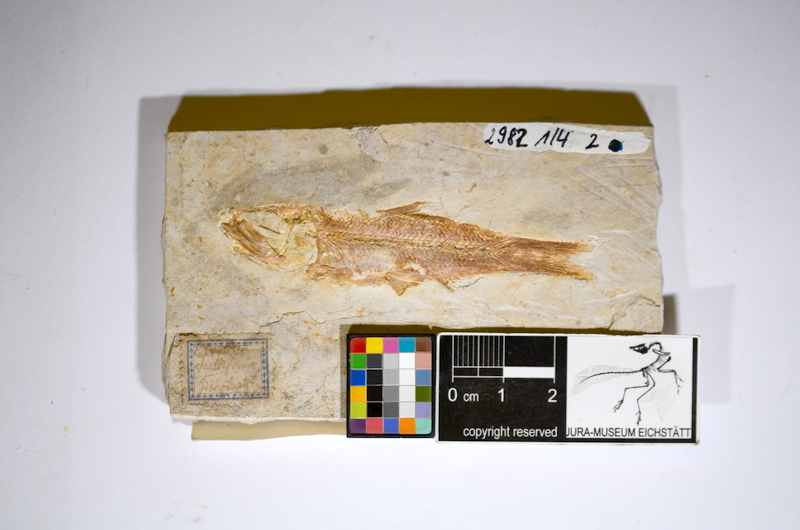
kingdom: Animalia
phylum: Chordata
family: Ascalaboidae
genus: Ascalabos
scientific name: Ascalabos voithii
